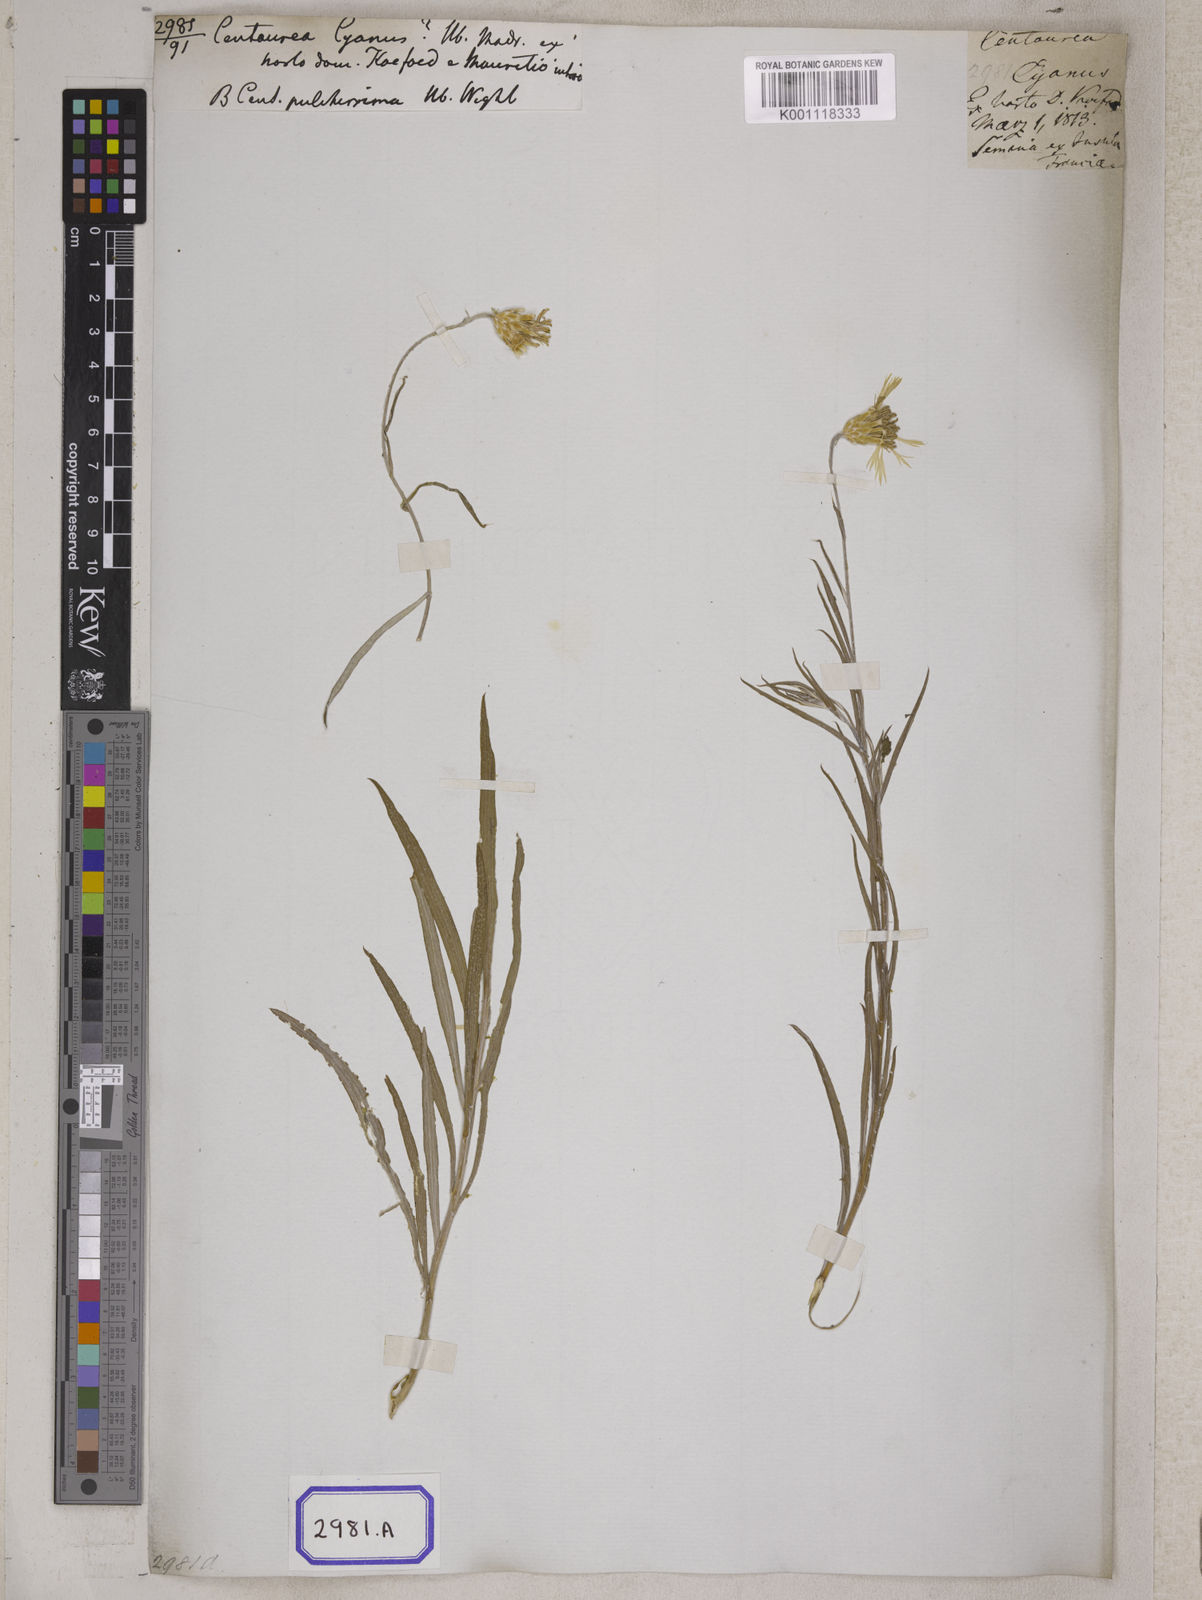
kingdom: Plantae
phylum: Tracheophyta
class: Magnoliopsida
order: Asterales
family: Asteraceae
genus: Centaurea
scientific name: Centaurea cyanus
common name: Cornflower
